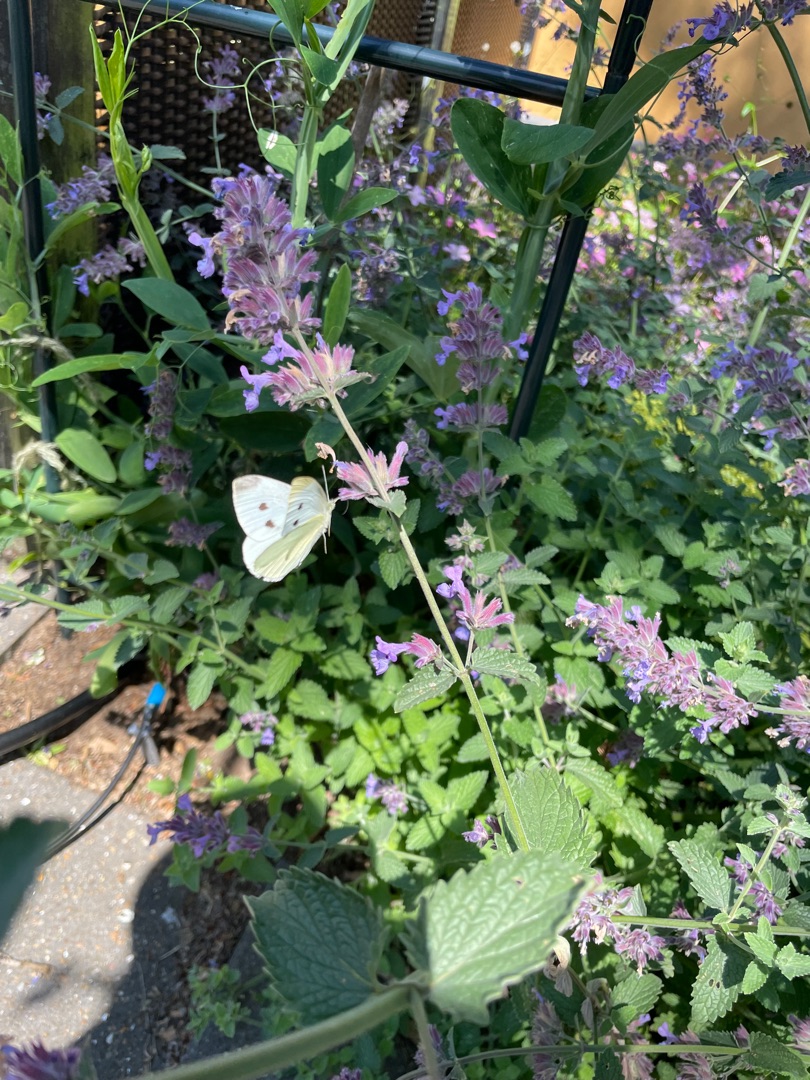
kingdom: Animalia
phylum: Arthropoda
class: Insecta
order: Lepidoptera
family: Pieridae
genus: Pieris
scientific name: Pieris rapae
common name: Lille kålsommerfugl
